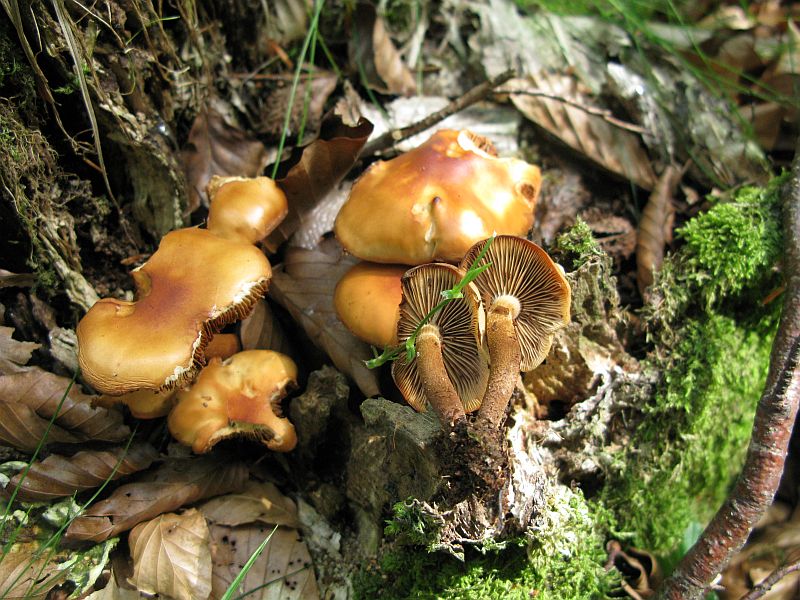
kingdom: Fungi
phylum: Basidiomycota
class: Agaricomycetes
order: Agaricales
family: Strophariaceae
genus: Kuehneromyces
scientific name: Kuehneromyces mutabilis
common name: foranderlig skælhat
